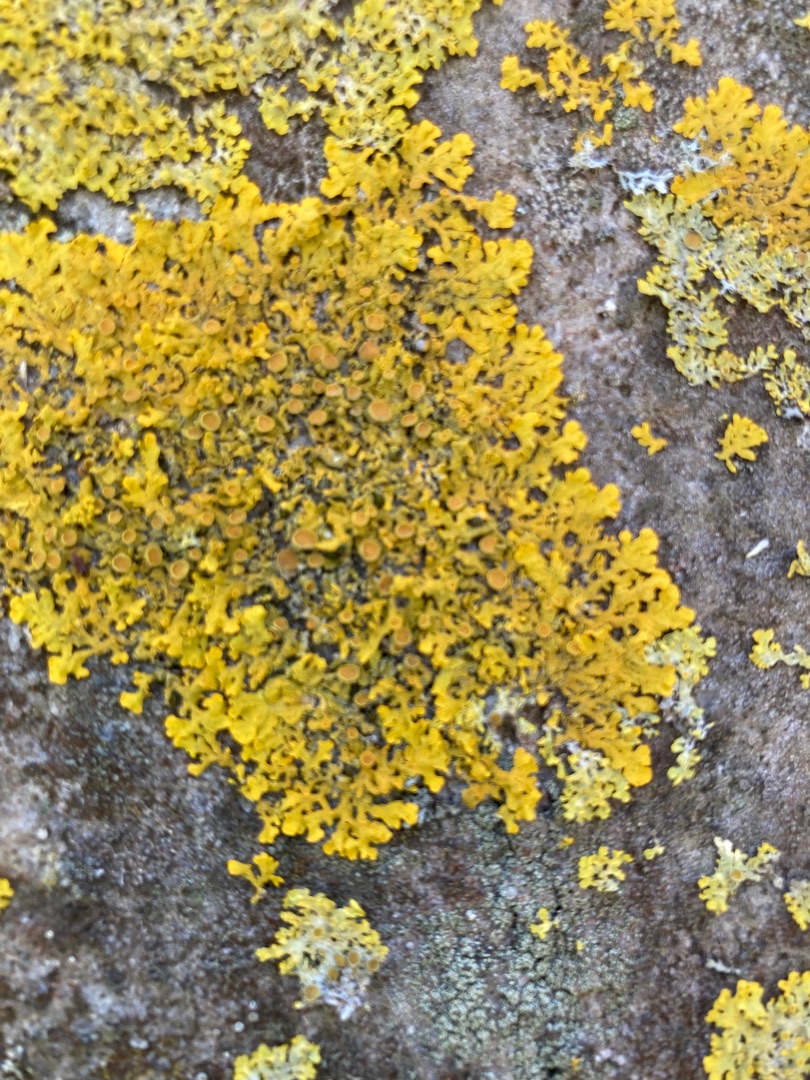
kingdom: Fungi
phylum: Ascomycota
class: Lecanoromycetes
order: Teloschistales
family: Teloschistaceae
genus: Xanthoria
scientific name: Xanthoria parietina
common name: Almindelig væggelav
